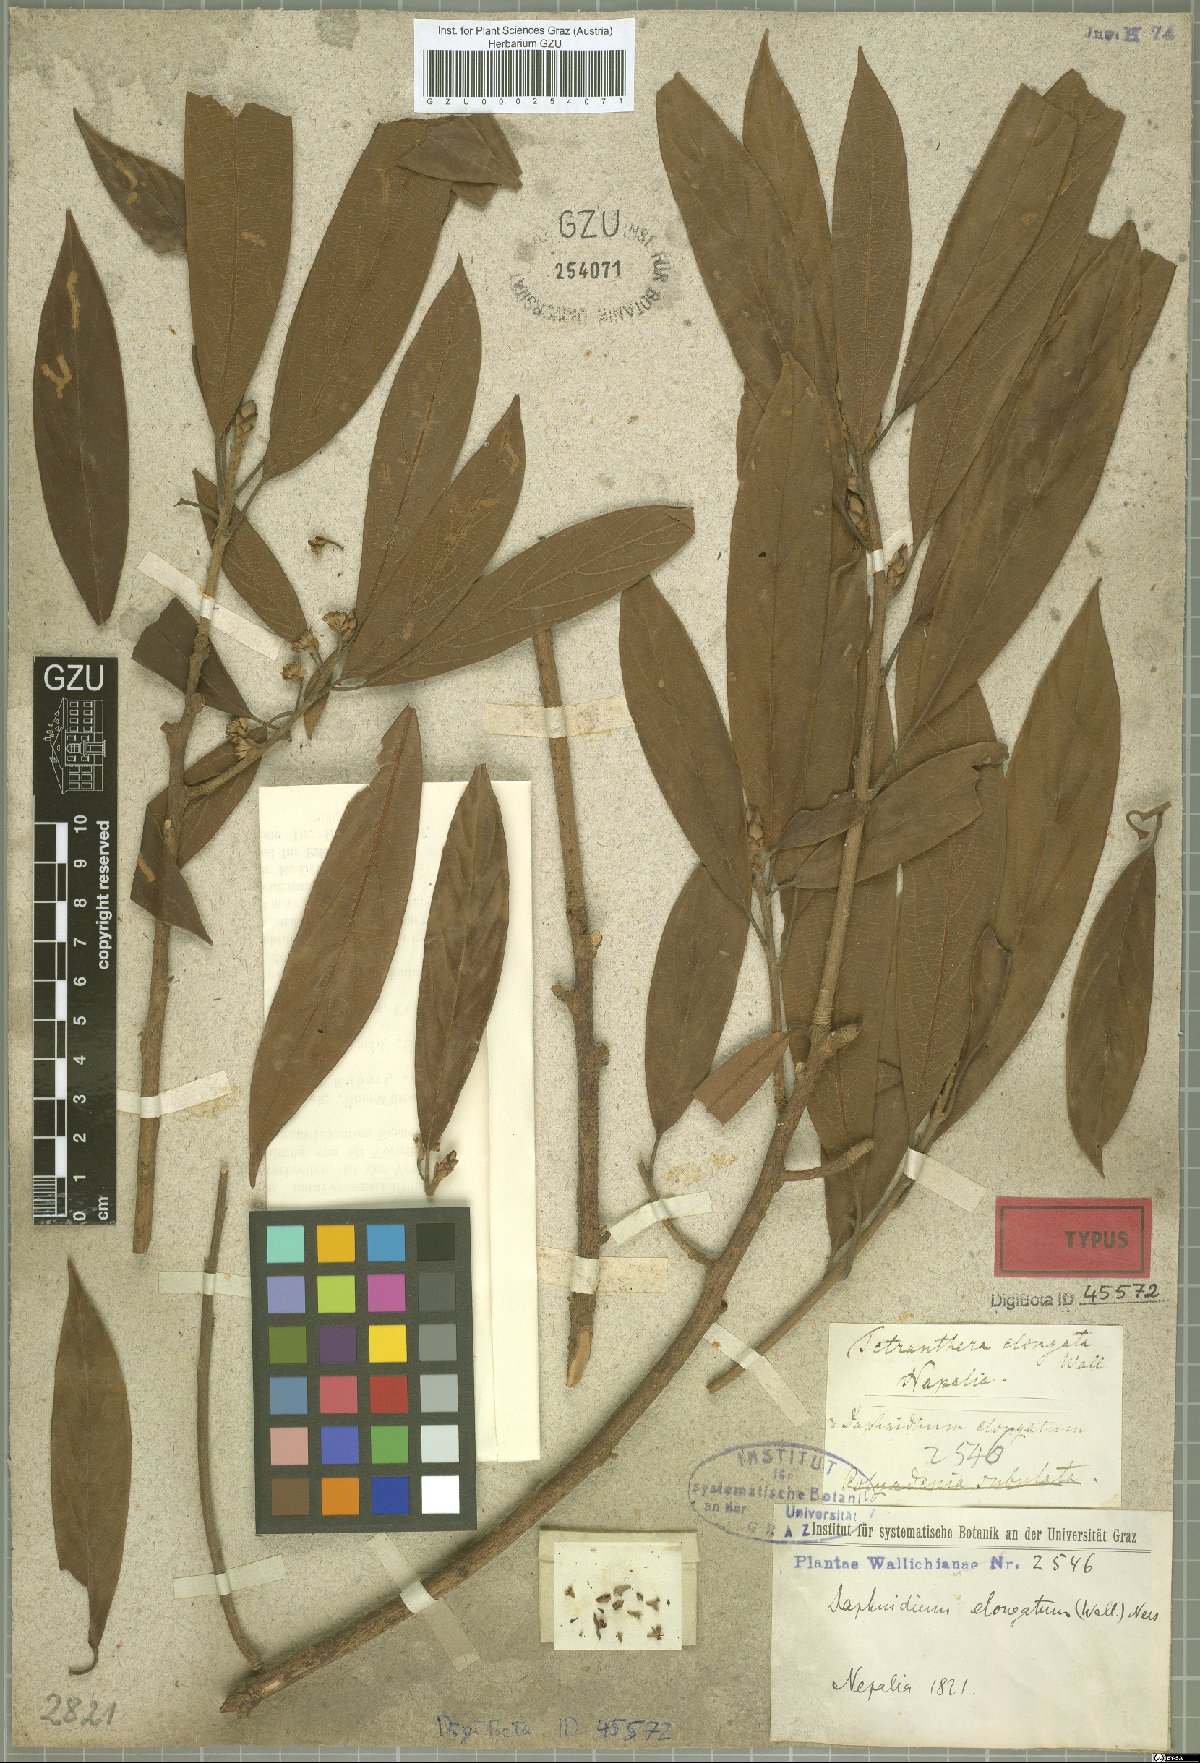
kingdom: Plantae
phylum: Tracheophyta
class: Magnoliopsida
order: Laurales
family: Lauraceae
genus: Litsea
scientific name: Litsea elongata
